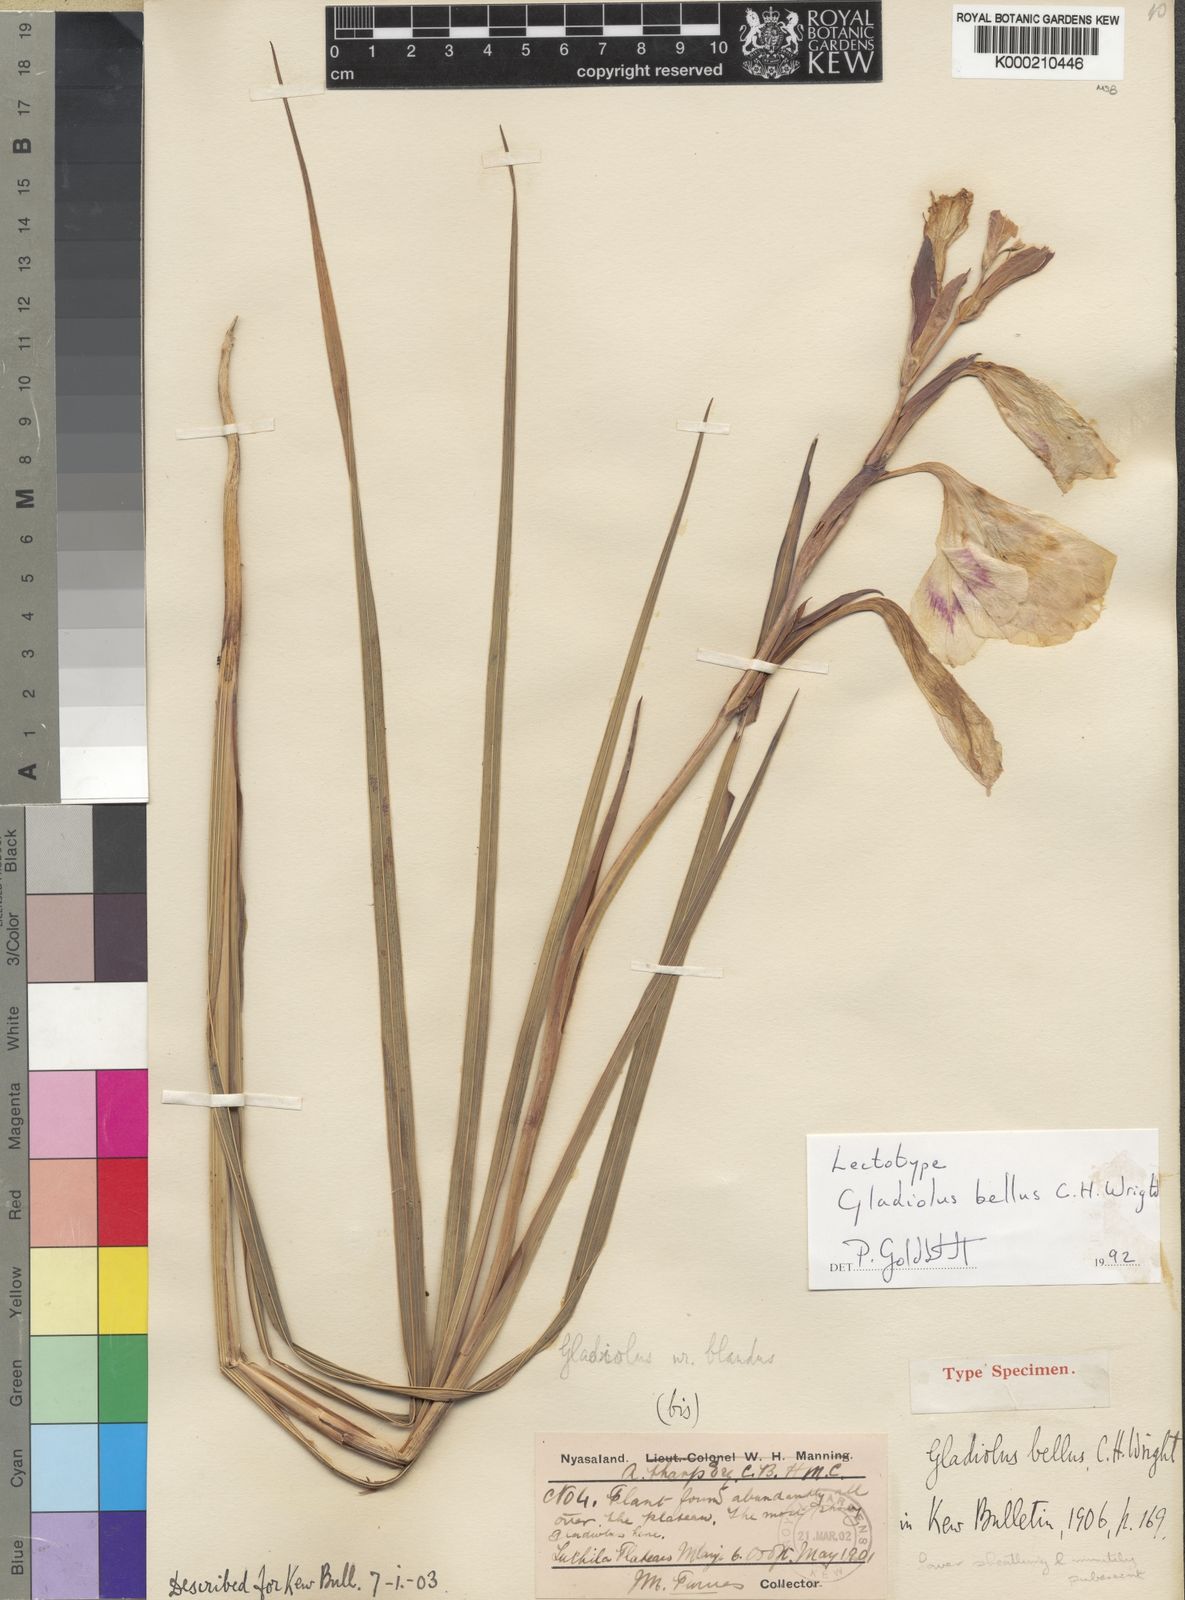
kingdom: Plantae
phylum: Tracheophyta
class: Liliopsida
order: Asparagales
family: Iridaceae
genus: Gladiolus
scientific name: Gladiolus bellus
